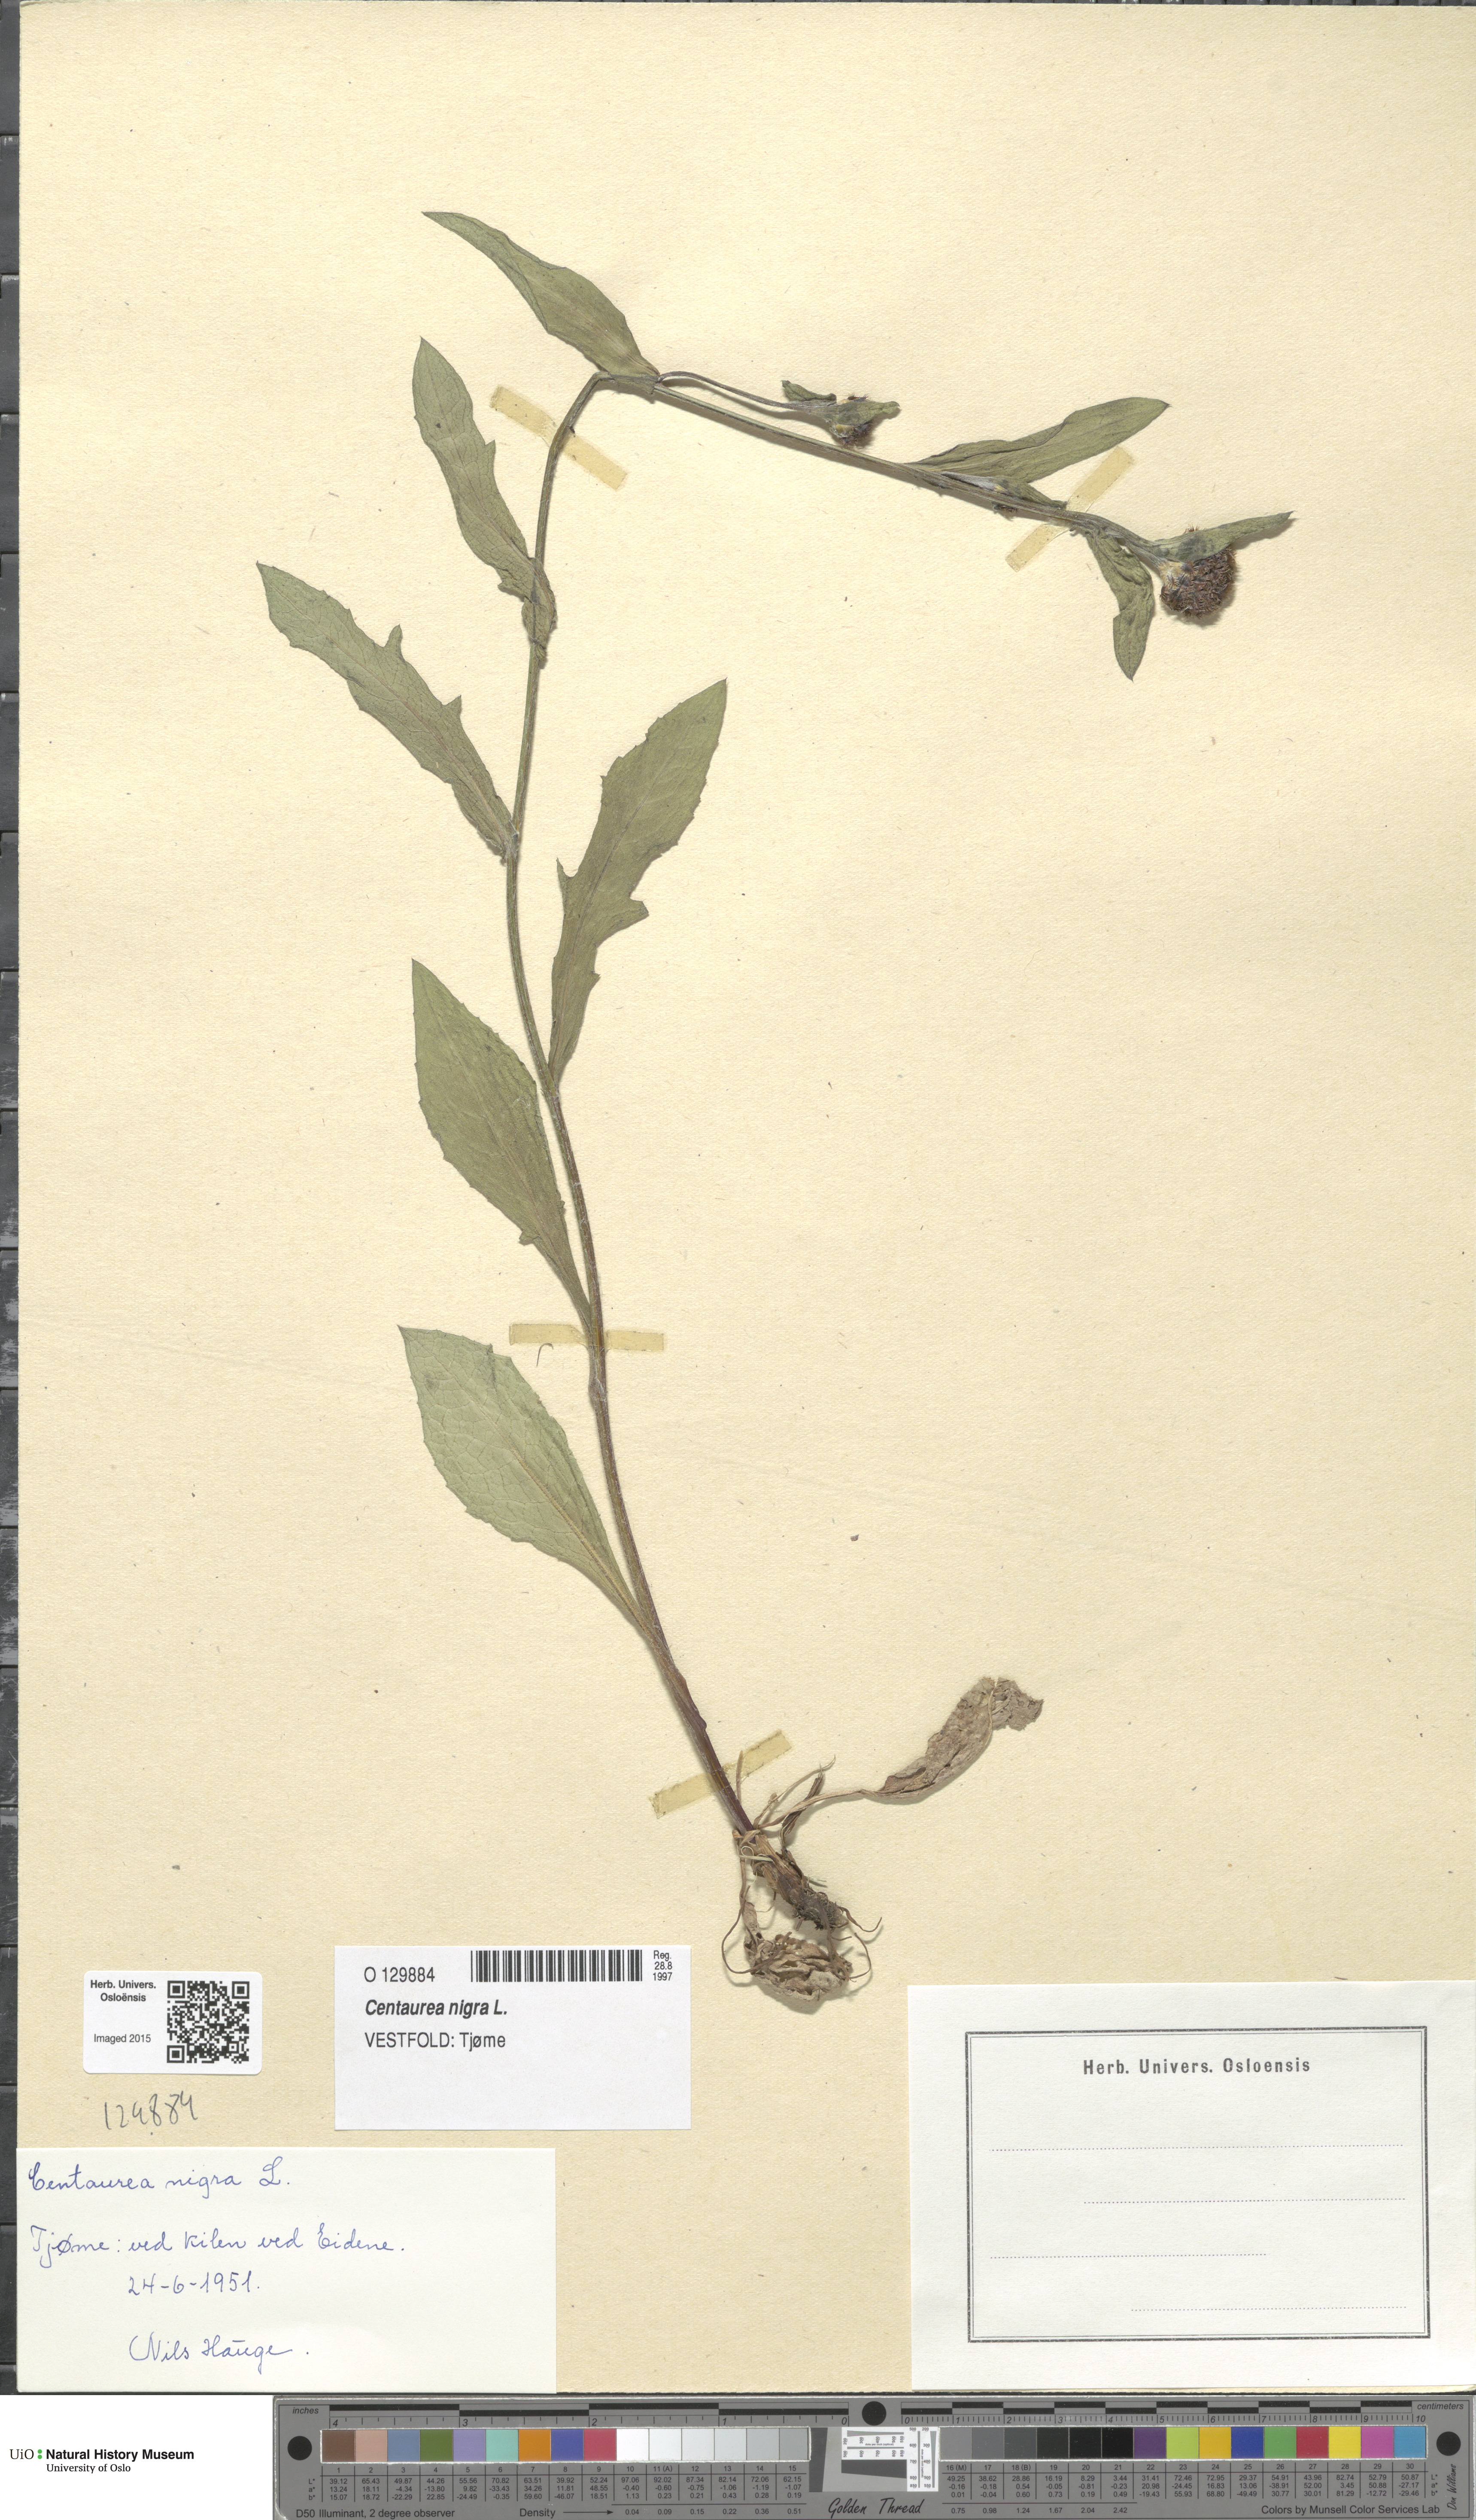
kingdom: Plantae
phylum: Tracheophyta
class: Magnoliopsida
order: Asterales
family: Asteraceae
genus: Centaurea
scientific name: Centaurea nigra
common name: Lesser knapweed
